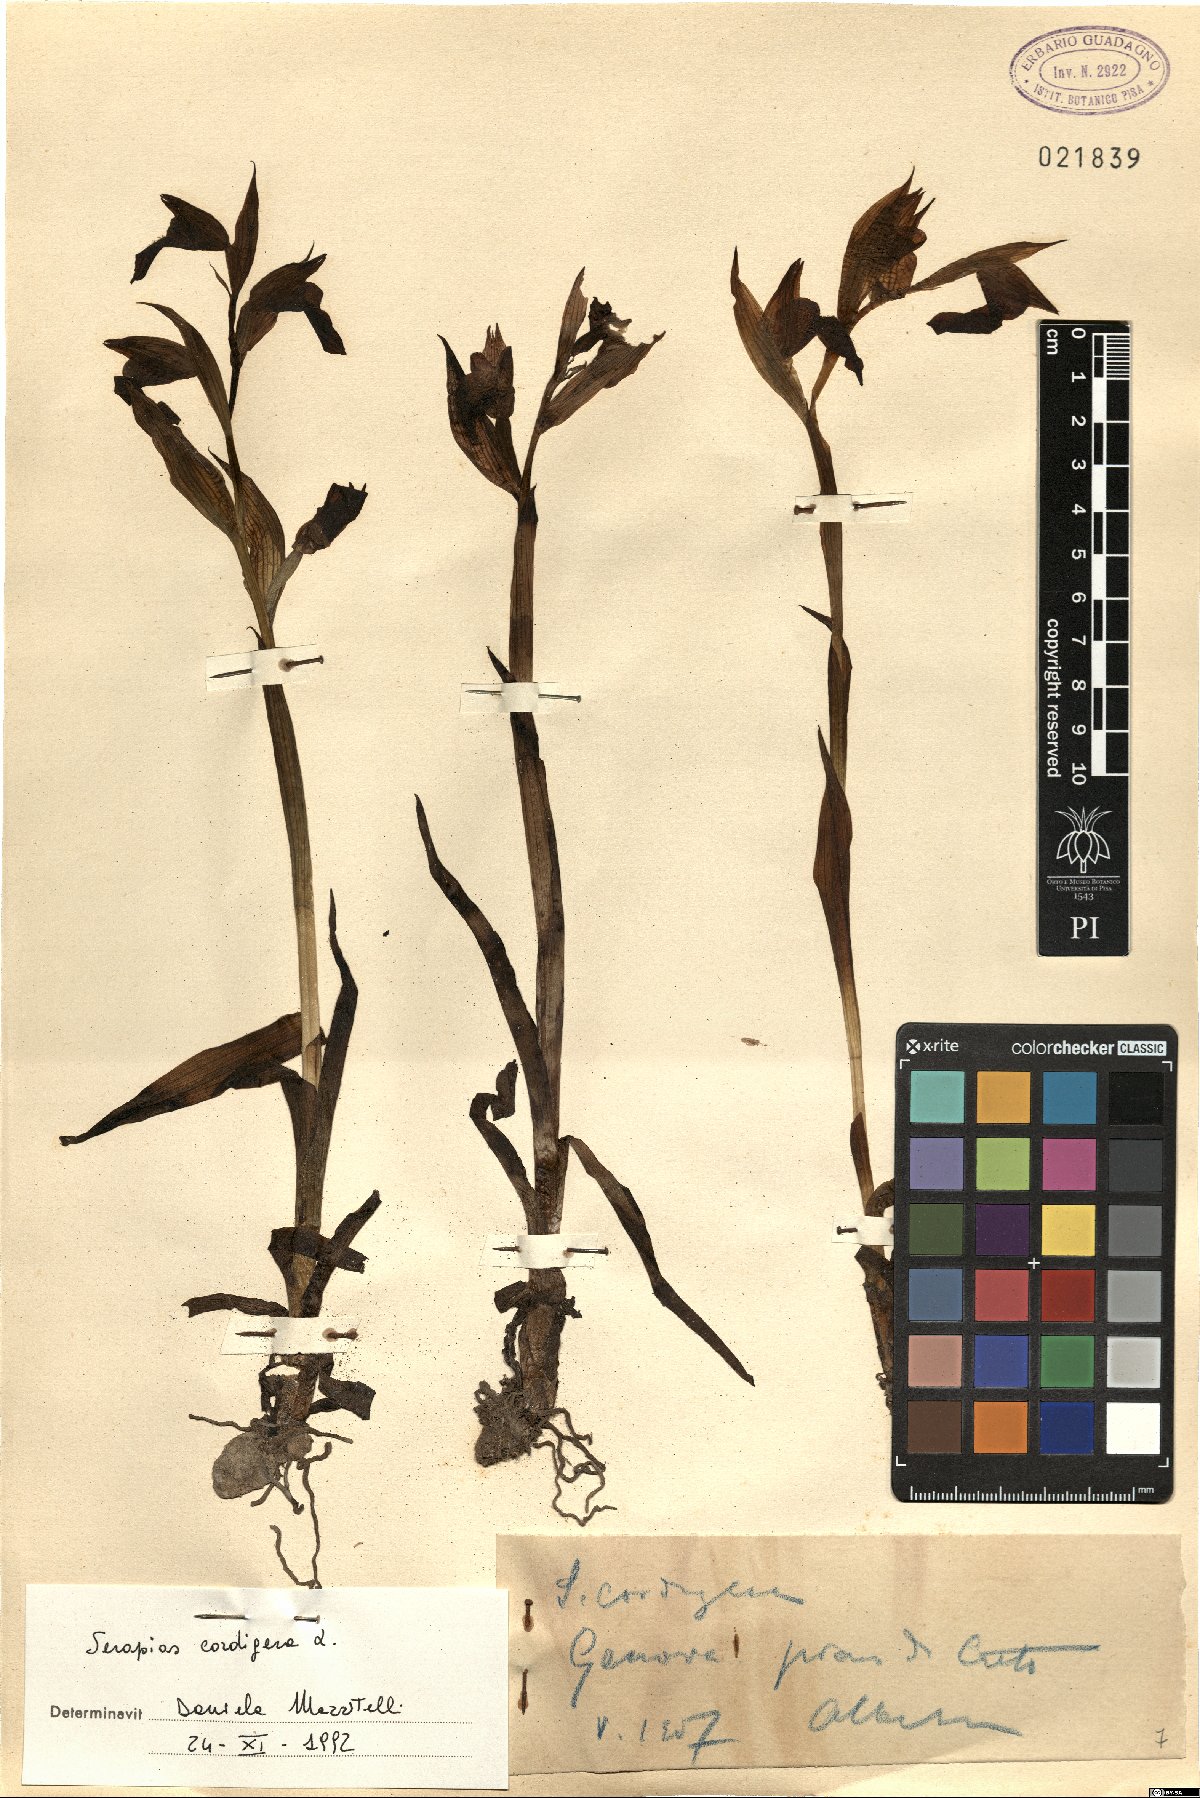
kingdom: Plantae
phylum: Tracheophyta
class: Liliopsida
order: Asparagales
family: Orchidaceae
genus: Serapias
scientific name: Serapias cordigera
